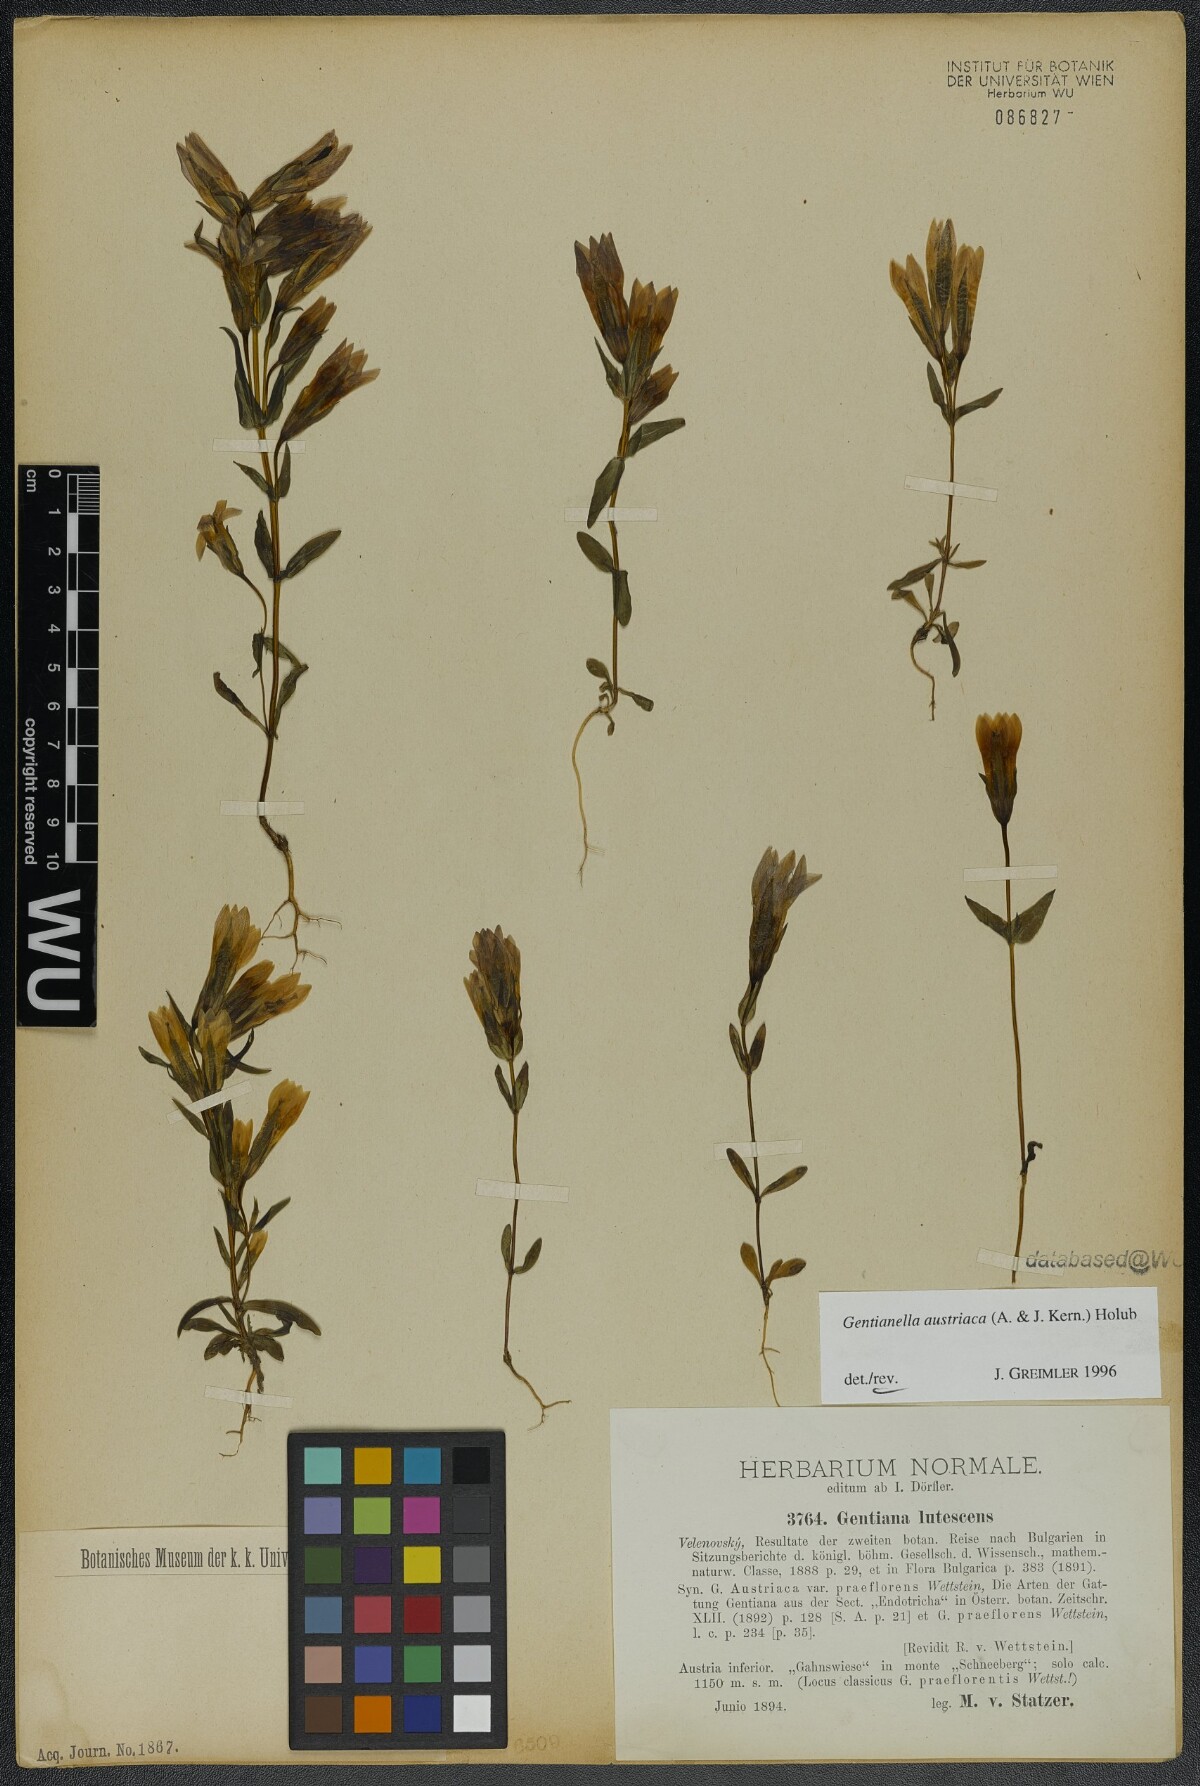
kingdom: Plantae
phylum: Tracheophyta
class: Magnoliopsida
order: Gentianales
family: Gentianaceae
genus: Gentianella
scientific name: Gentianella austriaca
